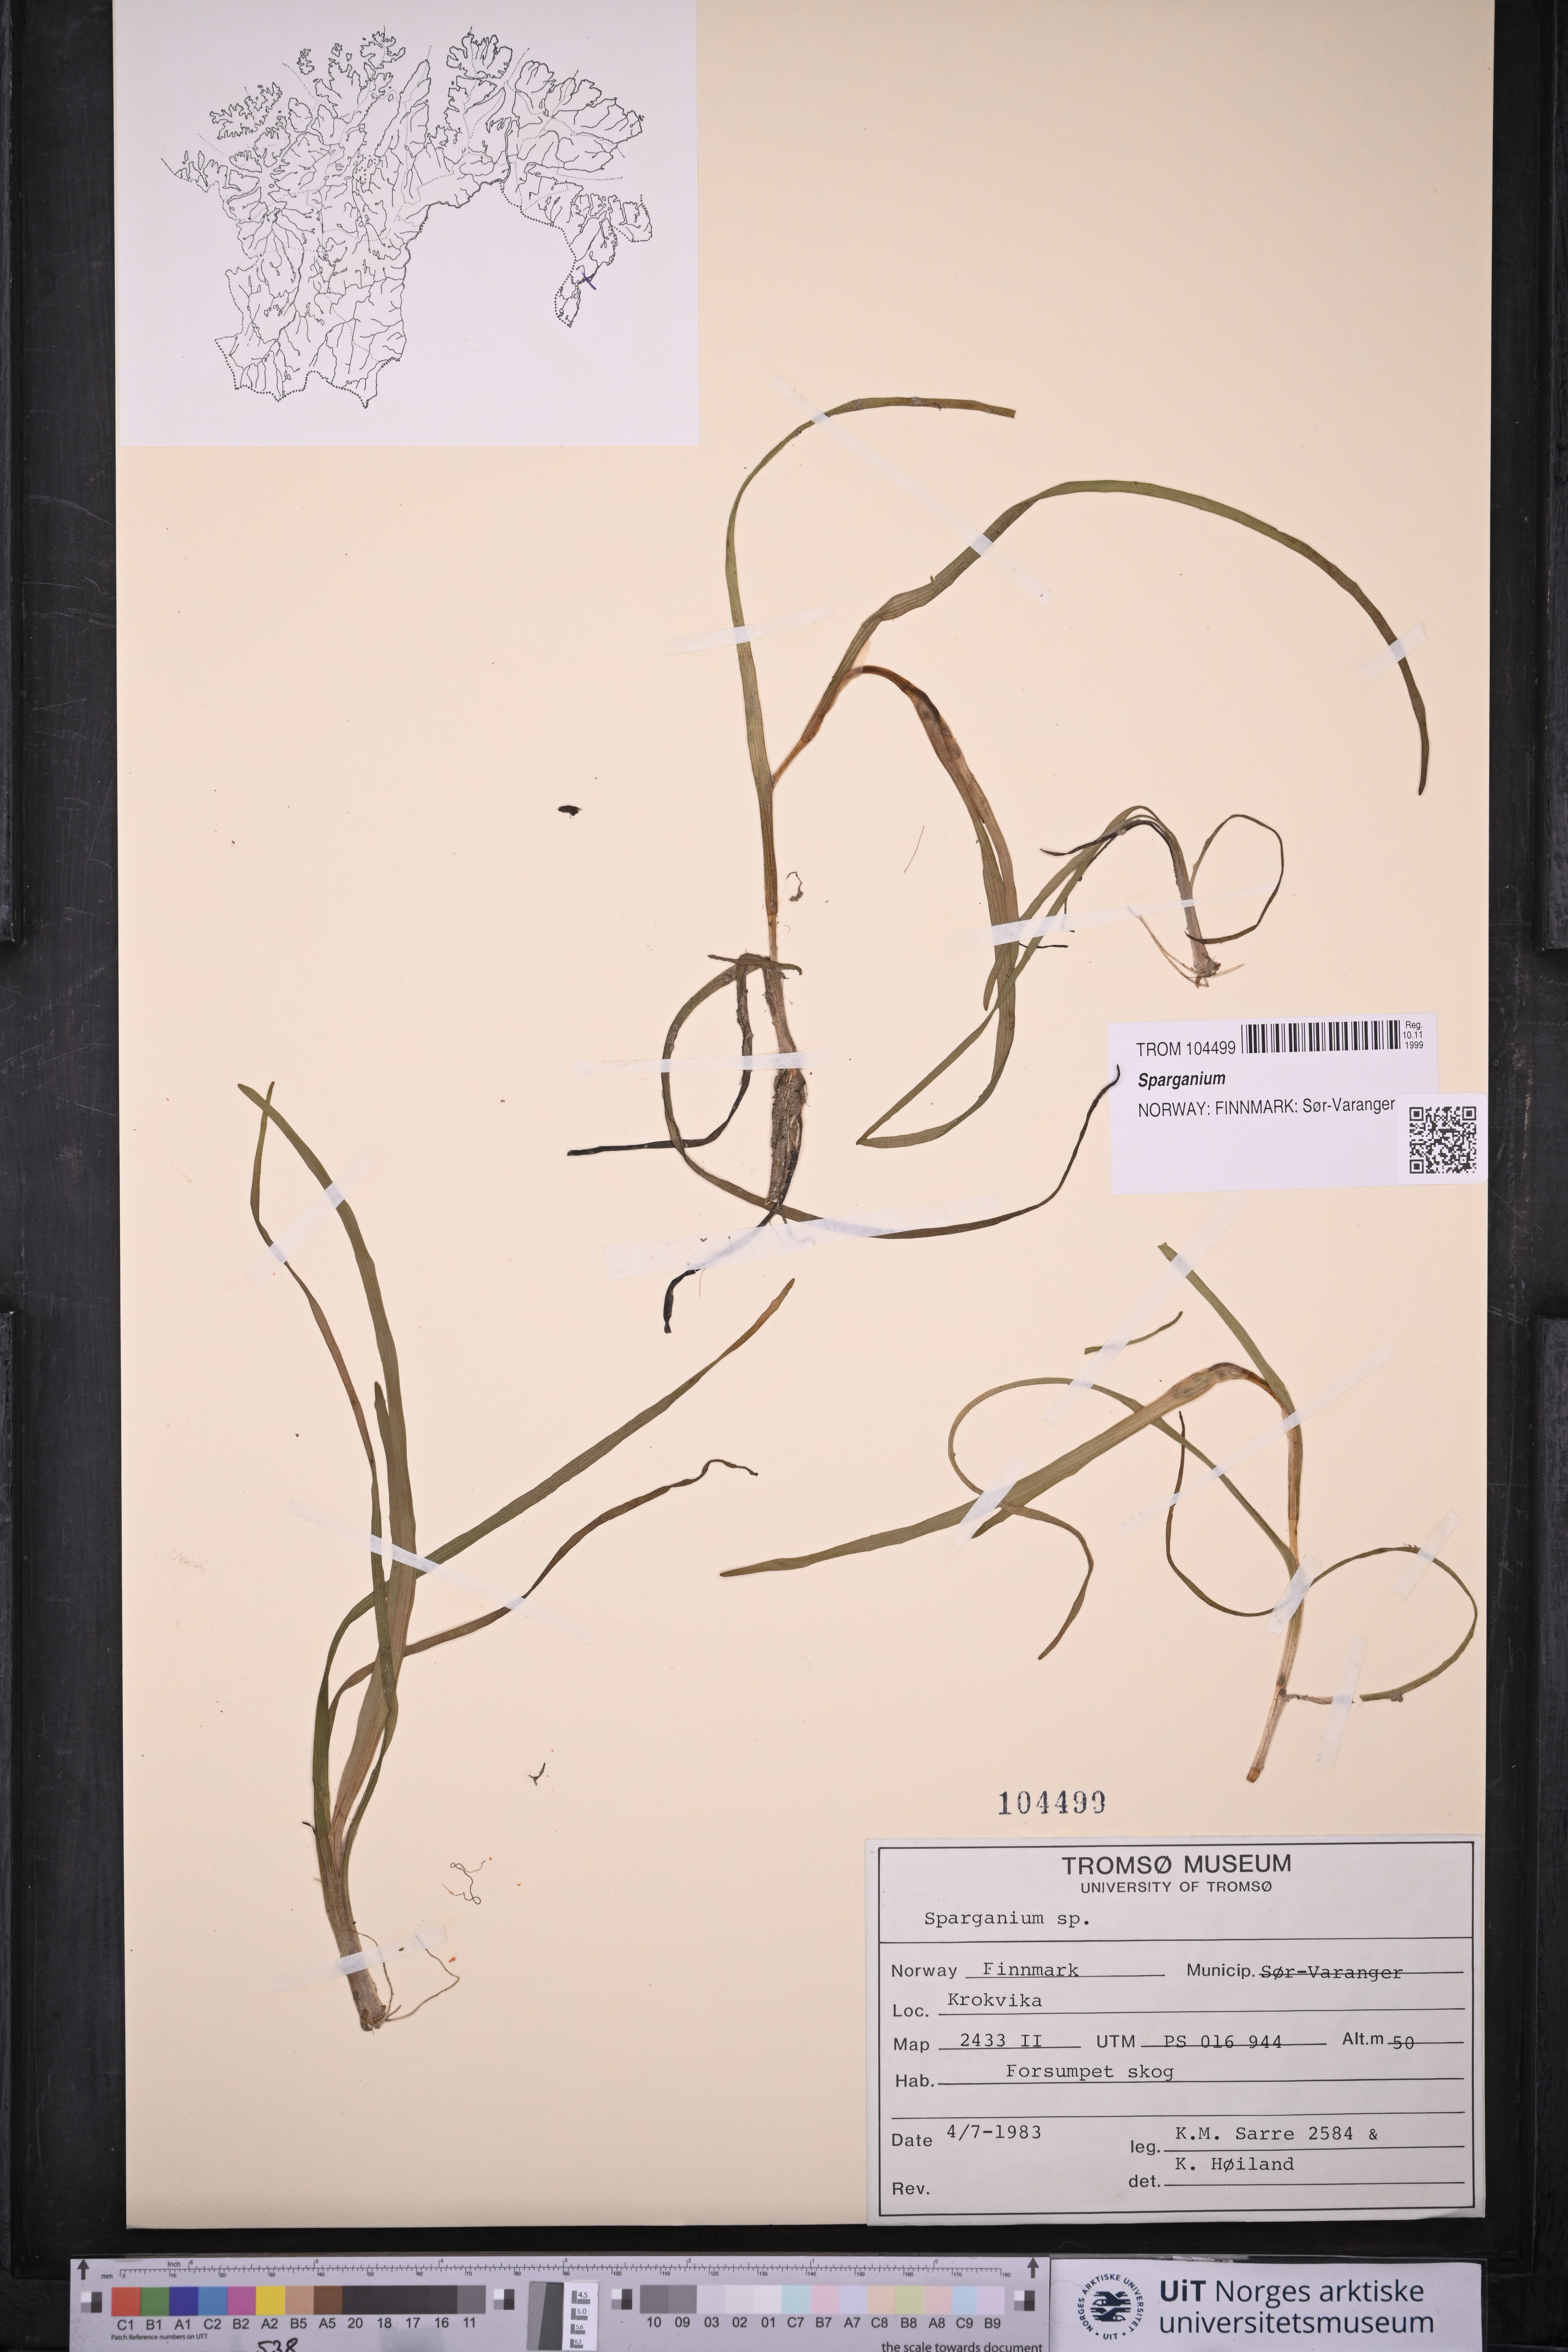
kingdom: Plantae
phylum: Tracheophyta
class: Liliopsida
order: Poales
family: Typhaceae
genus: Sparganium
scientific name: Sparganium
